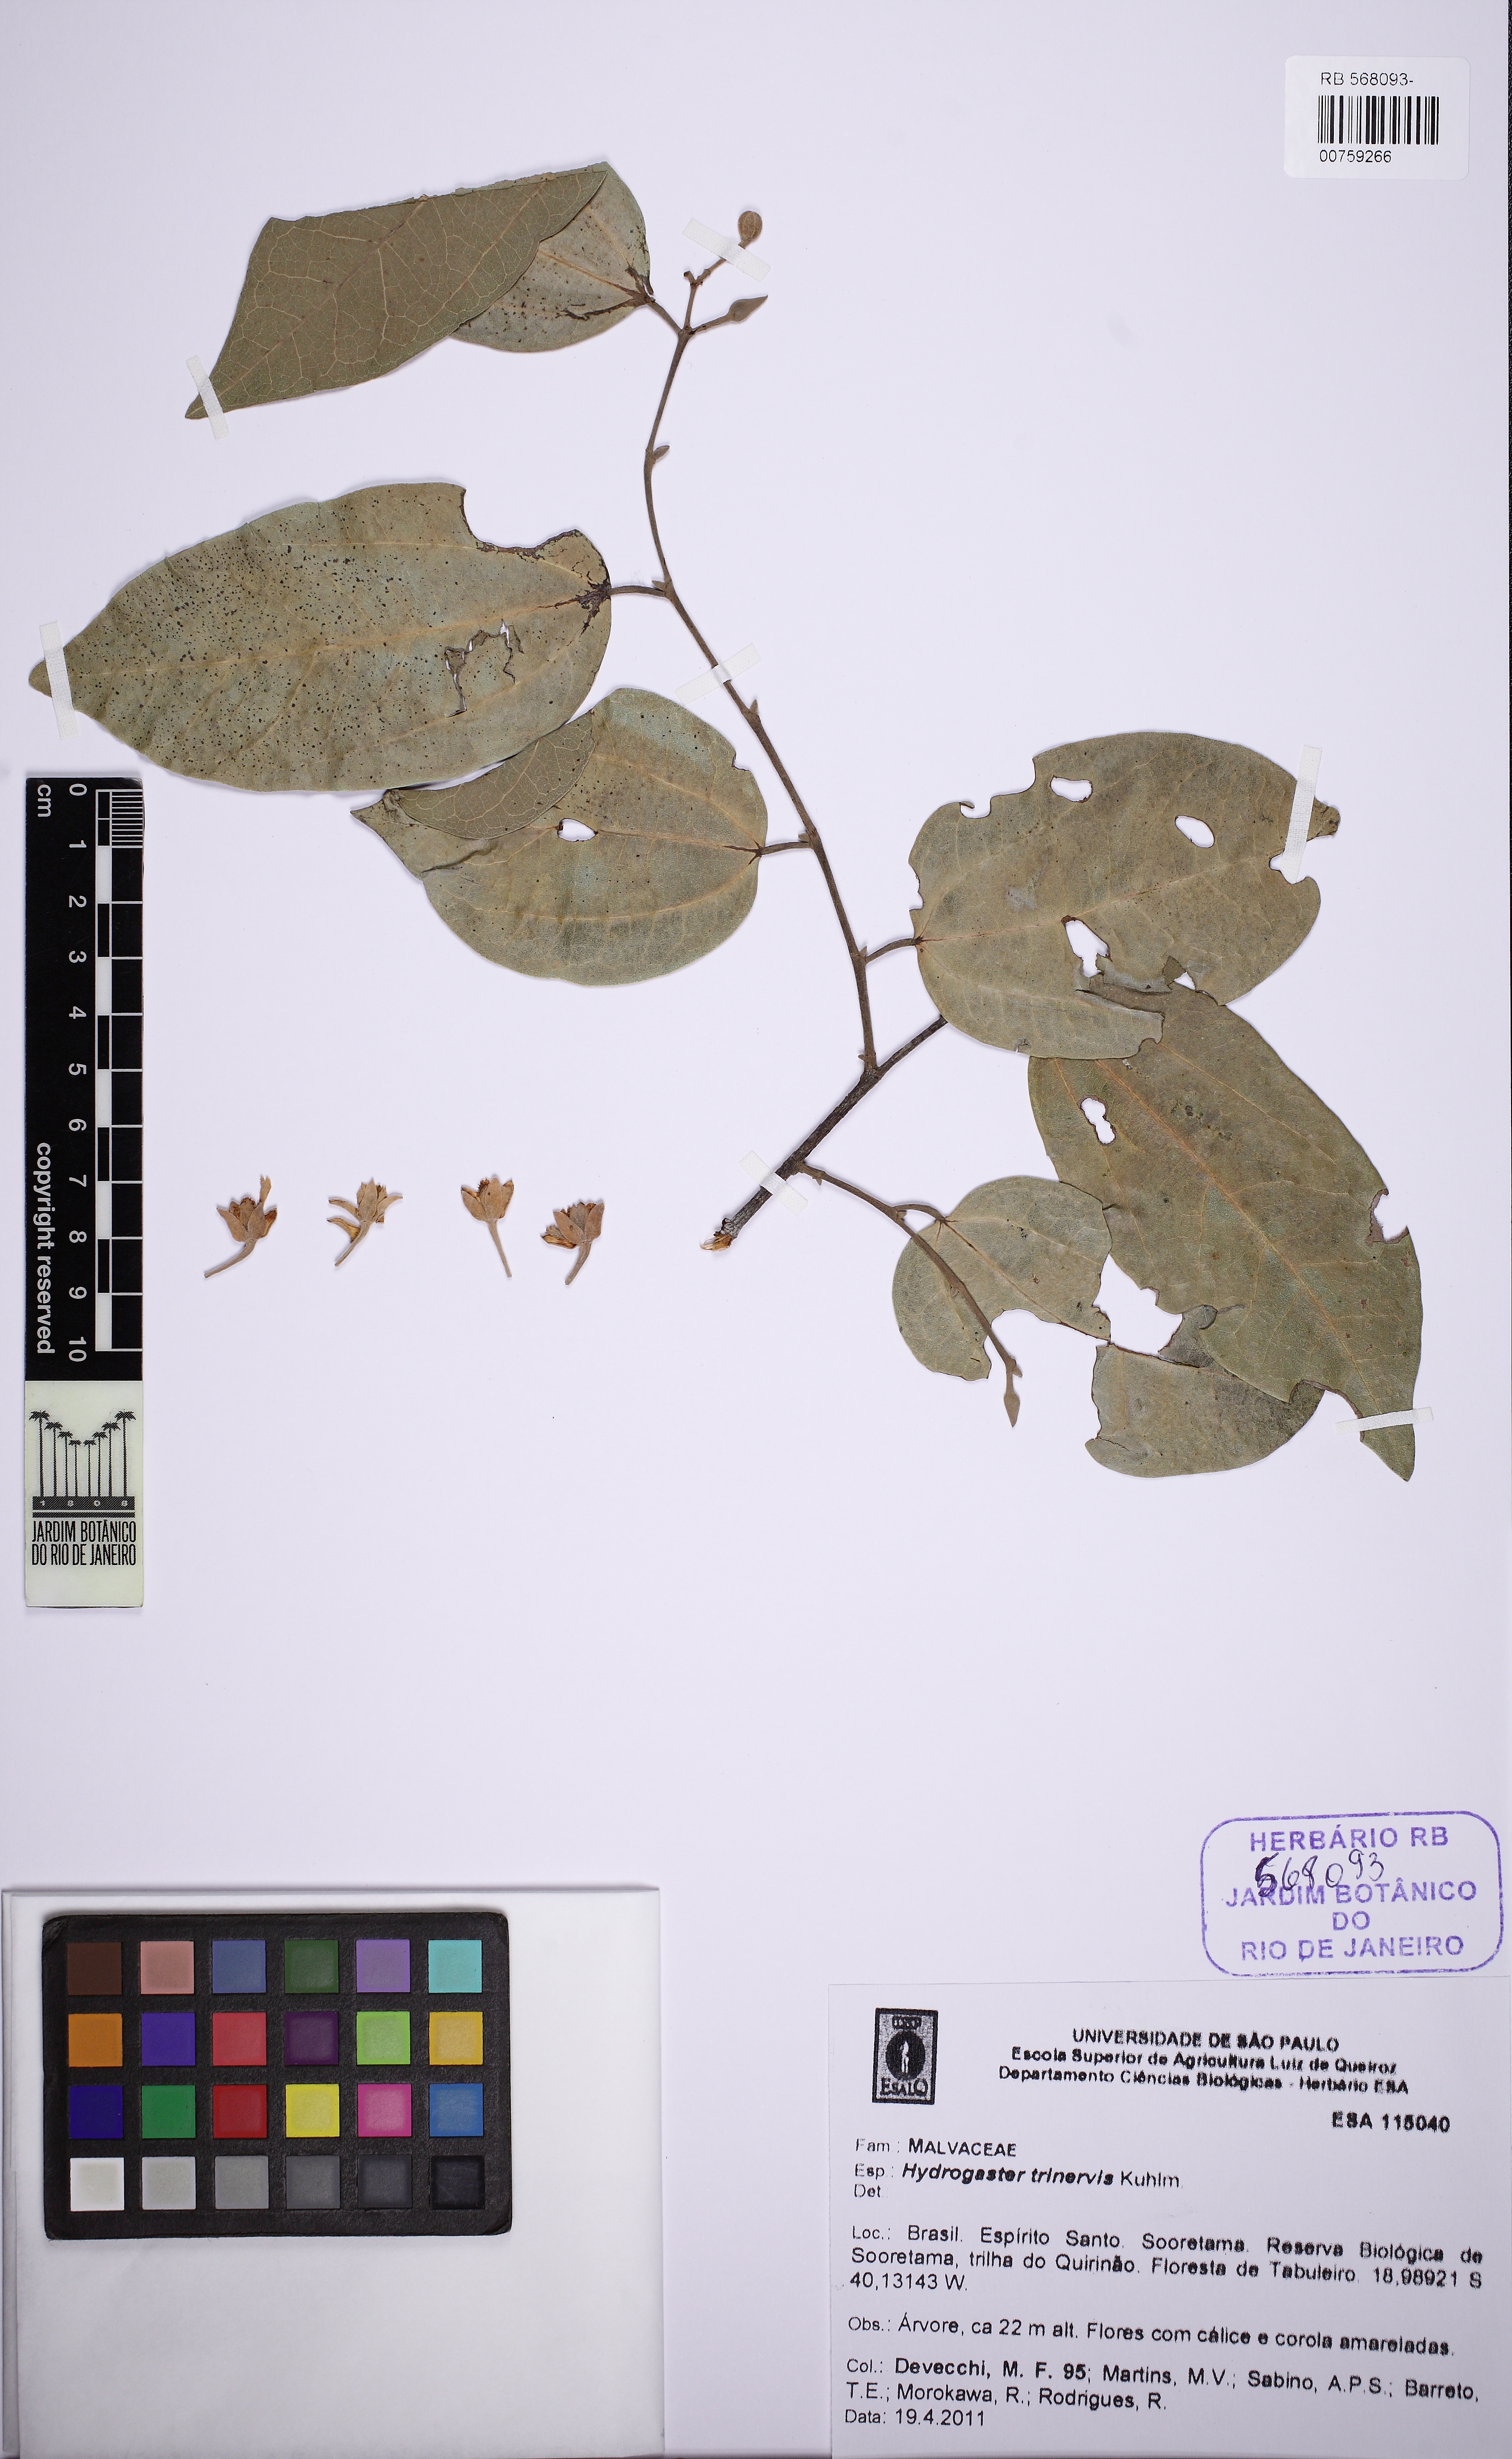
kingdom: Plantae
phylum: Tracheophyta
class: Magnoliopsida
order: Malvales
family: Malvaceae
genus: Hydrogaster
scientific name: Hydrogaster trinervis
